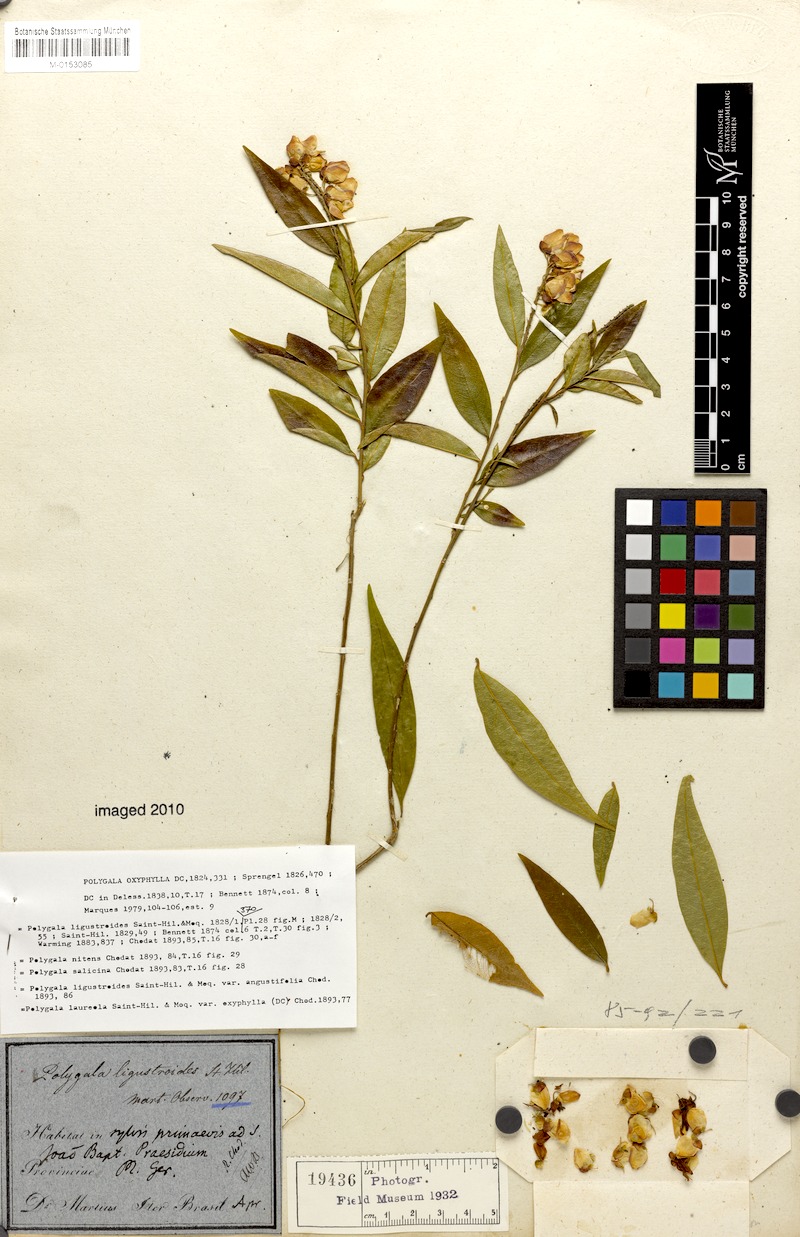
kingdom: Plantae
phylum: Tracheophyta
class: Magnoliopsida
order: Fabales
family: Polygalaceae
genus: Caamembeca
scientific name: Caamembeca oxyphylla
